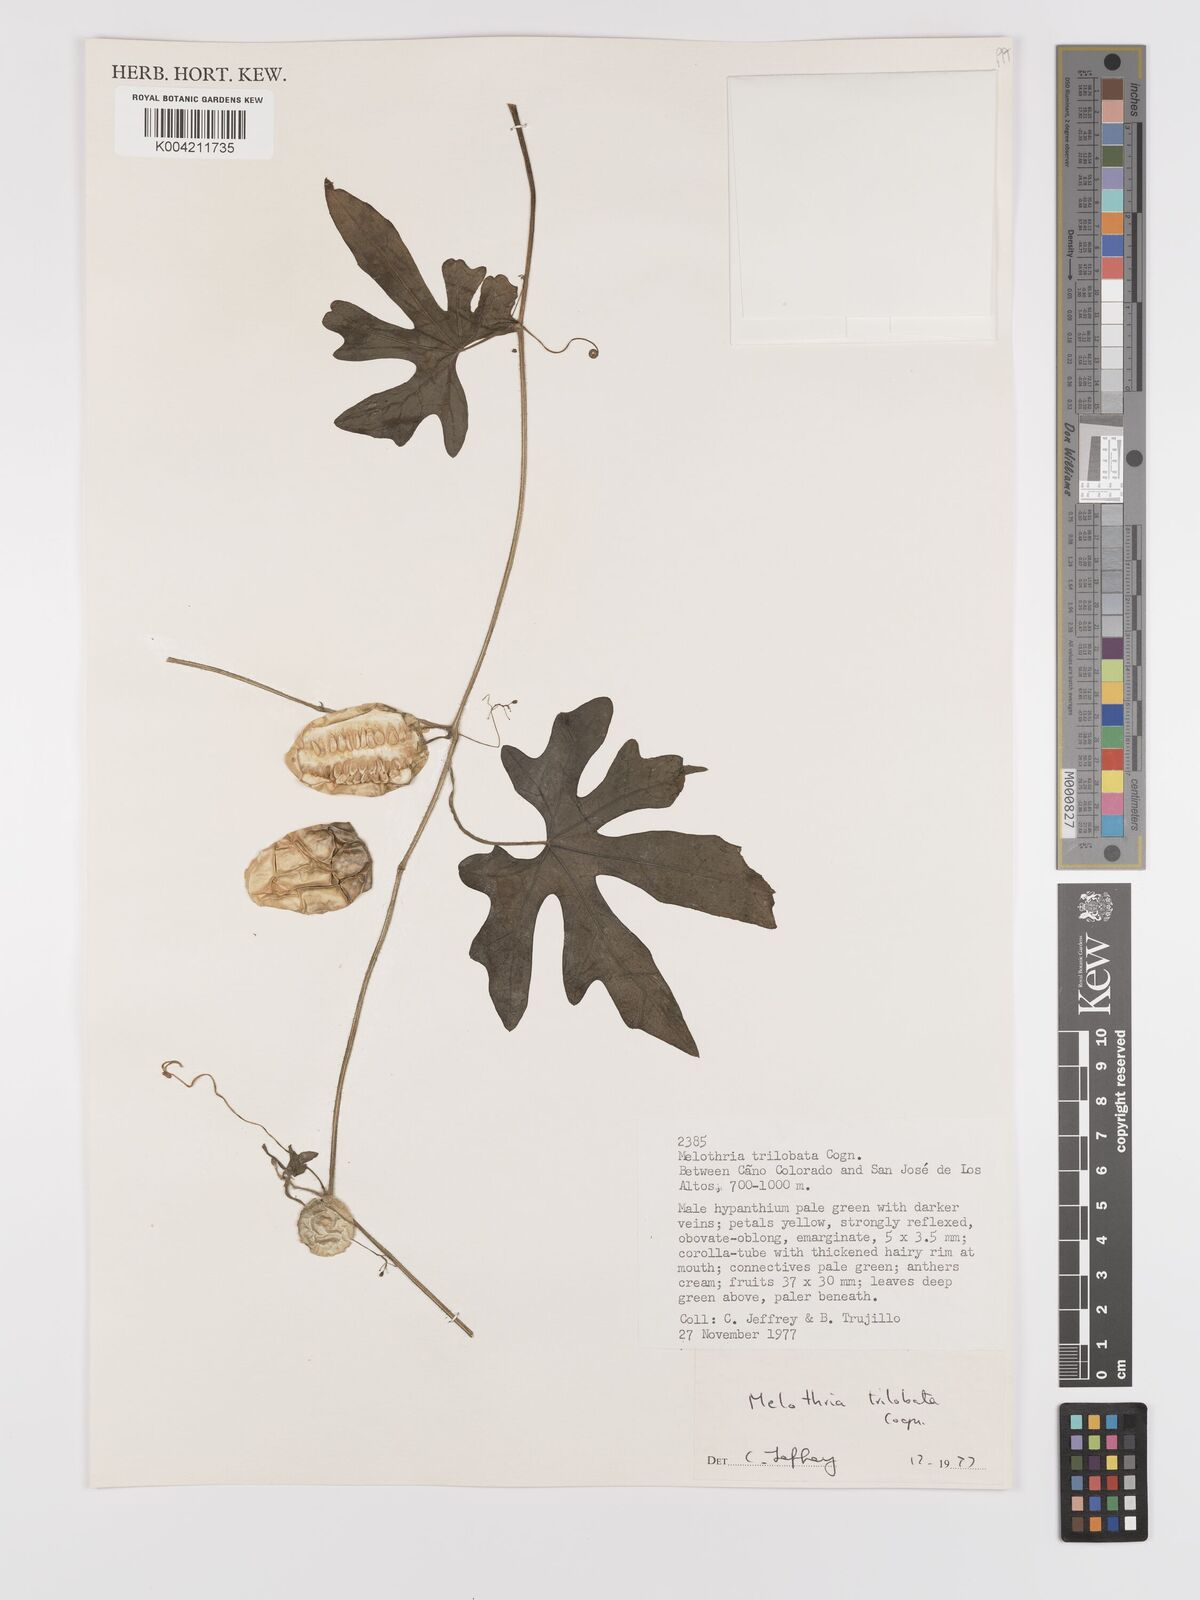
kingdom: Plantae
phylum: Tracheophyta
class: Magnoliopsida
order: Cucurbitales
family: Cucurbitaceae
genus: Melothria
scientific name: Melothria trilobata
